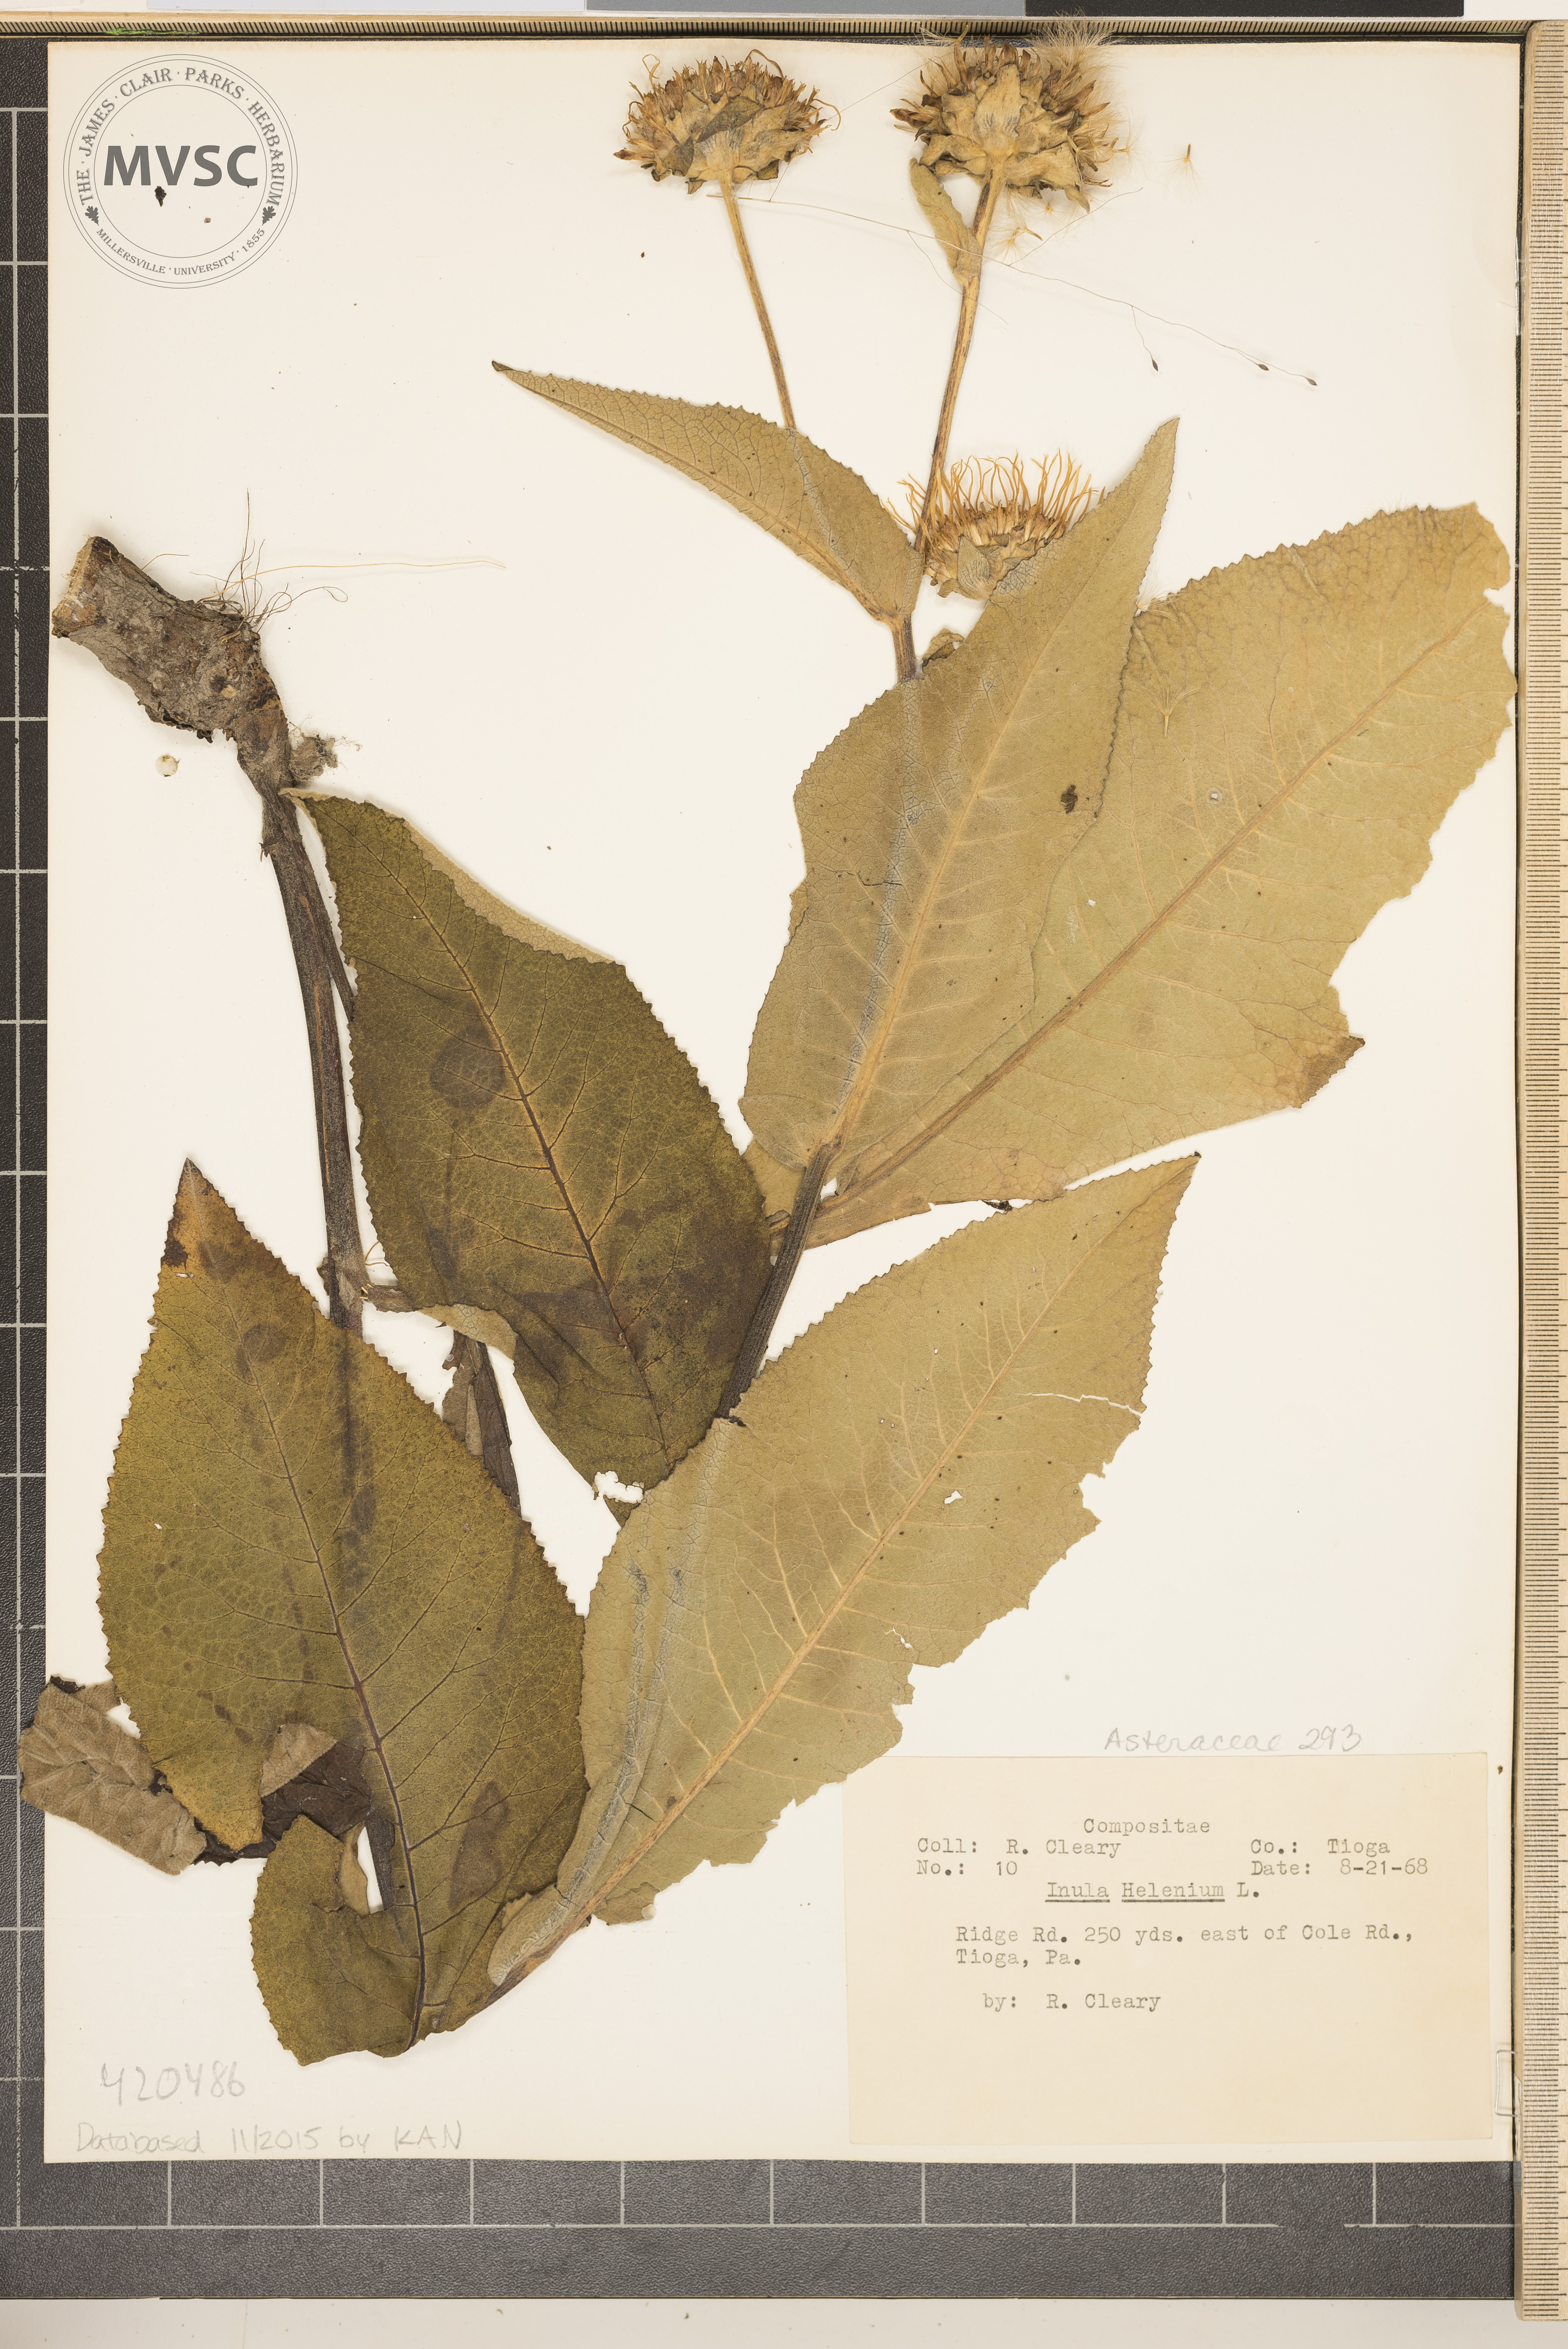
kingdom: Plantae
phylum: Tracheophyta
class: Magnoliopsida
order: Asterales
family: Asteraceae
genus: Inula
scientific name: Inula helenium
